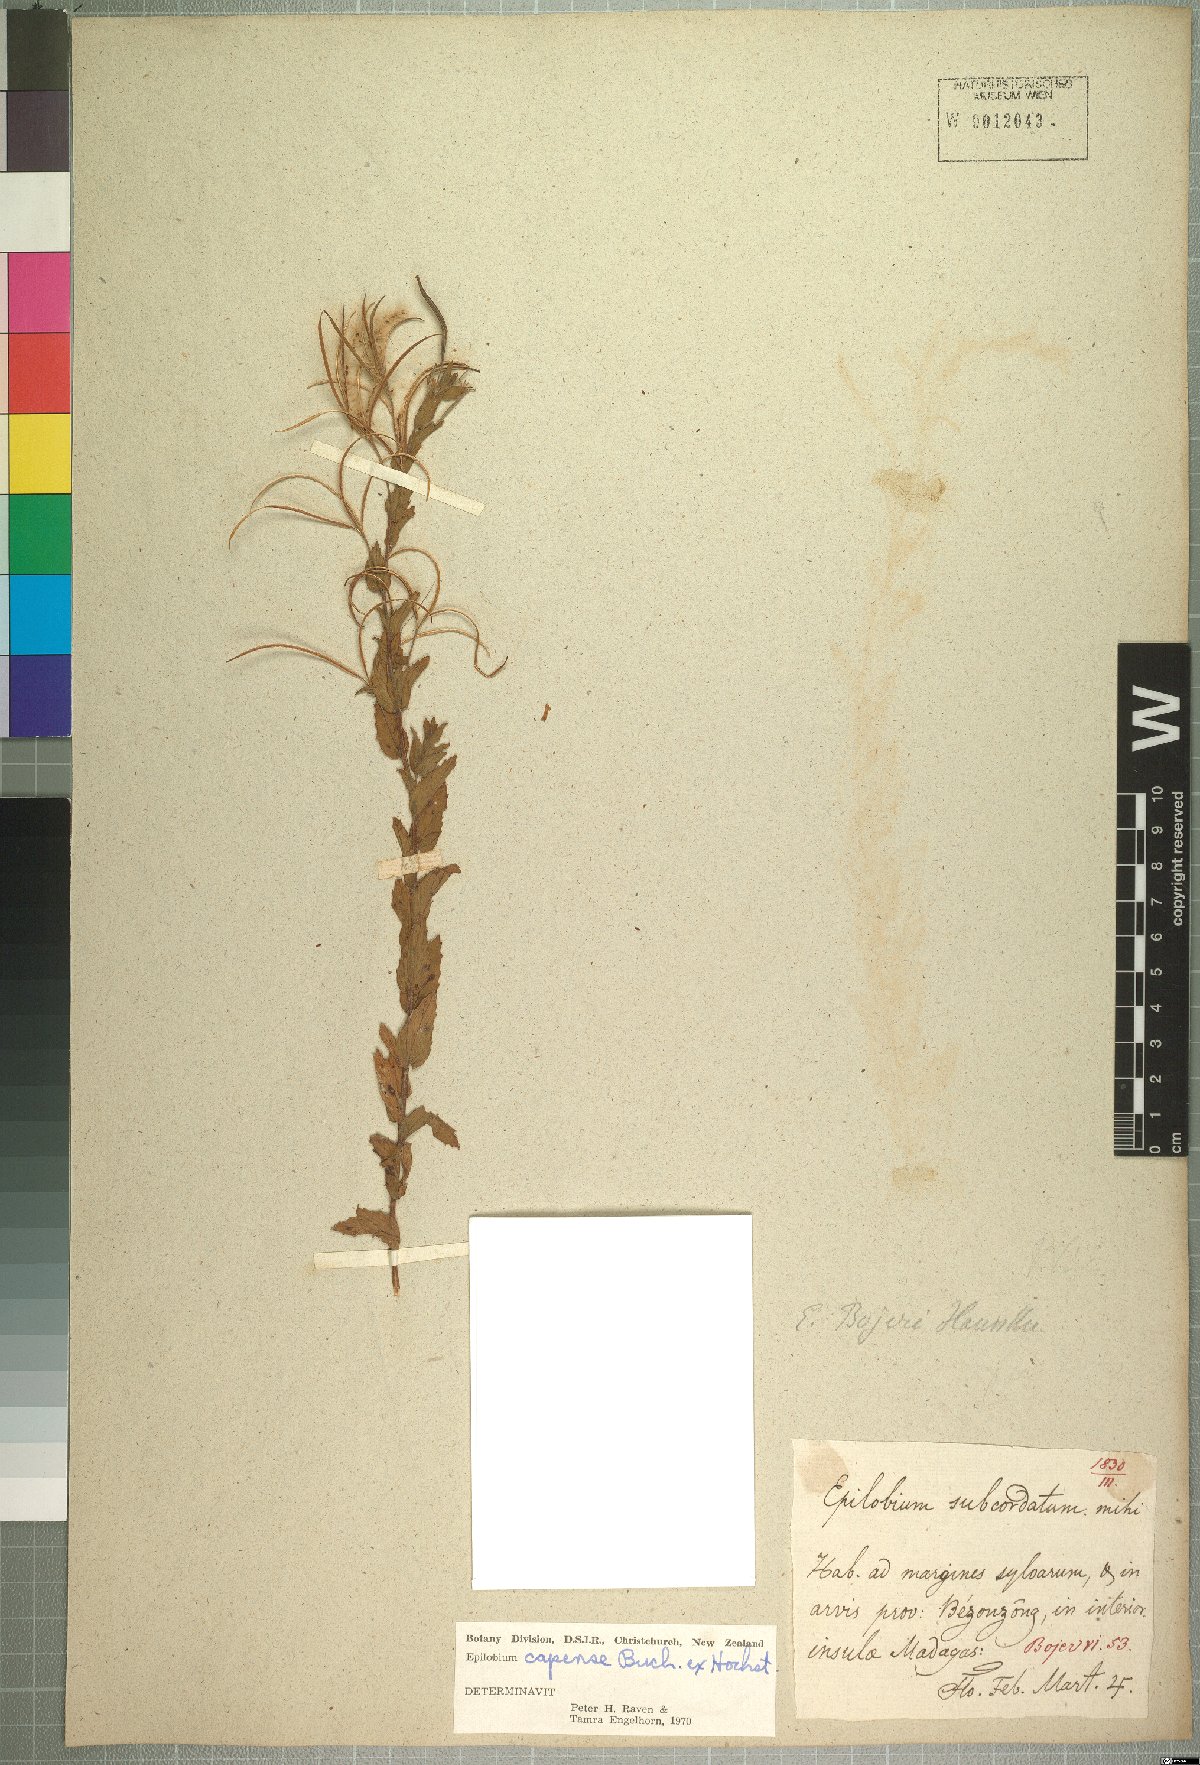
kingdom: Plantae
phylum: Tracheophyta
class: Magnoliopsida
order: Myrtales
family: Onagraceae
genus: Epilobium
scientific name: Epilobium capense
